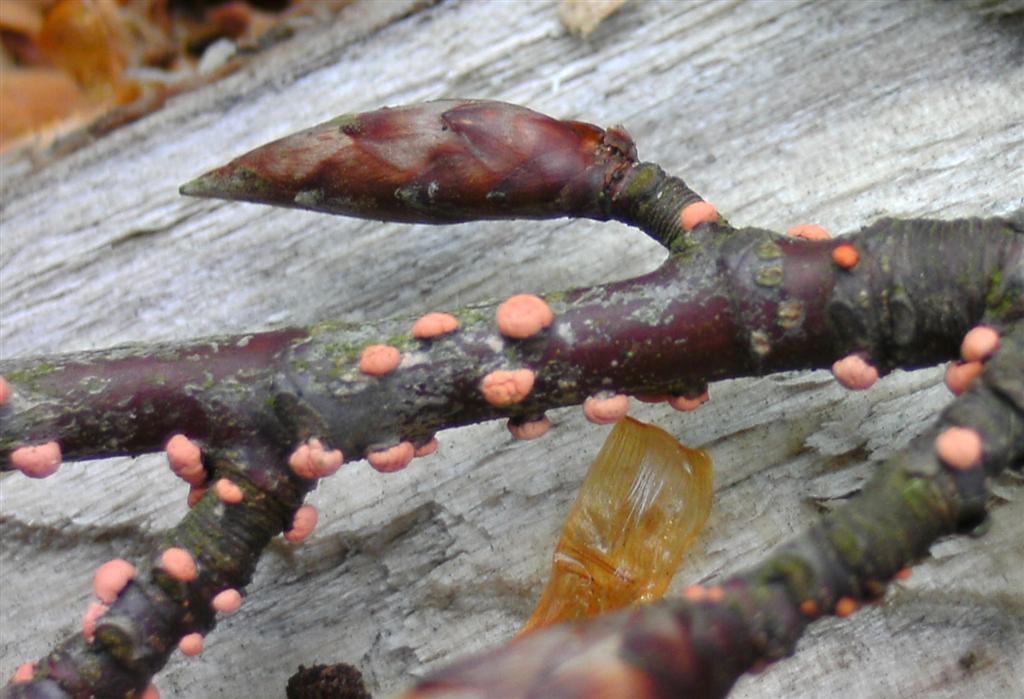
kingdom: Fungi
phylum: Ascomycota
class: Sordariomycetes
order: Hypocreales
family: Nectriaceae
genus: Nectria
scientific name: Nectria cinnabarina
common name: almindelig cinnobersvamp
